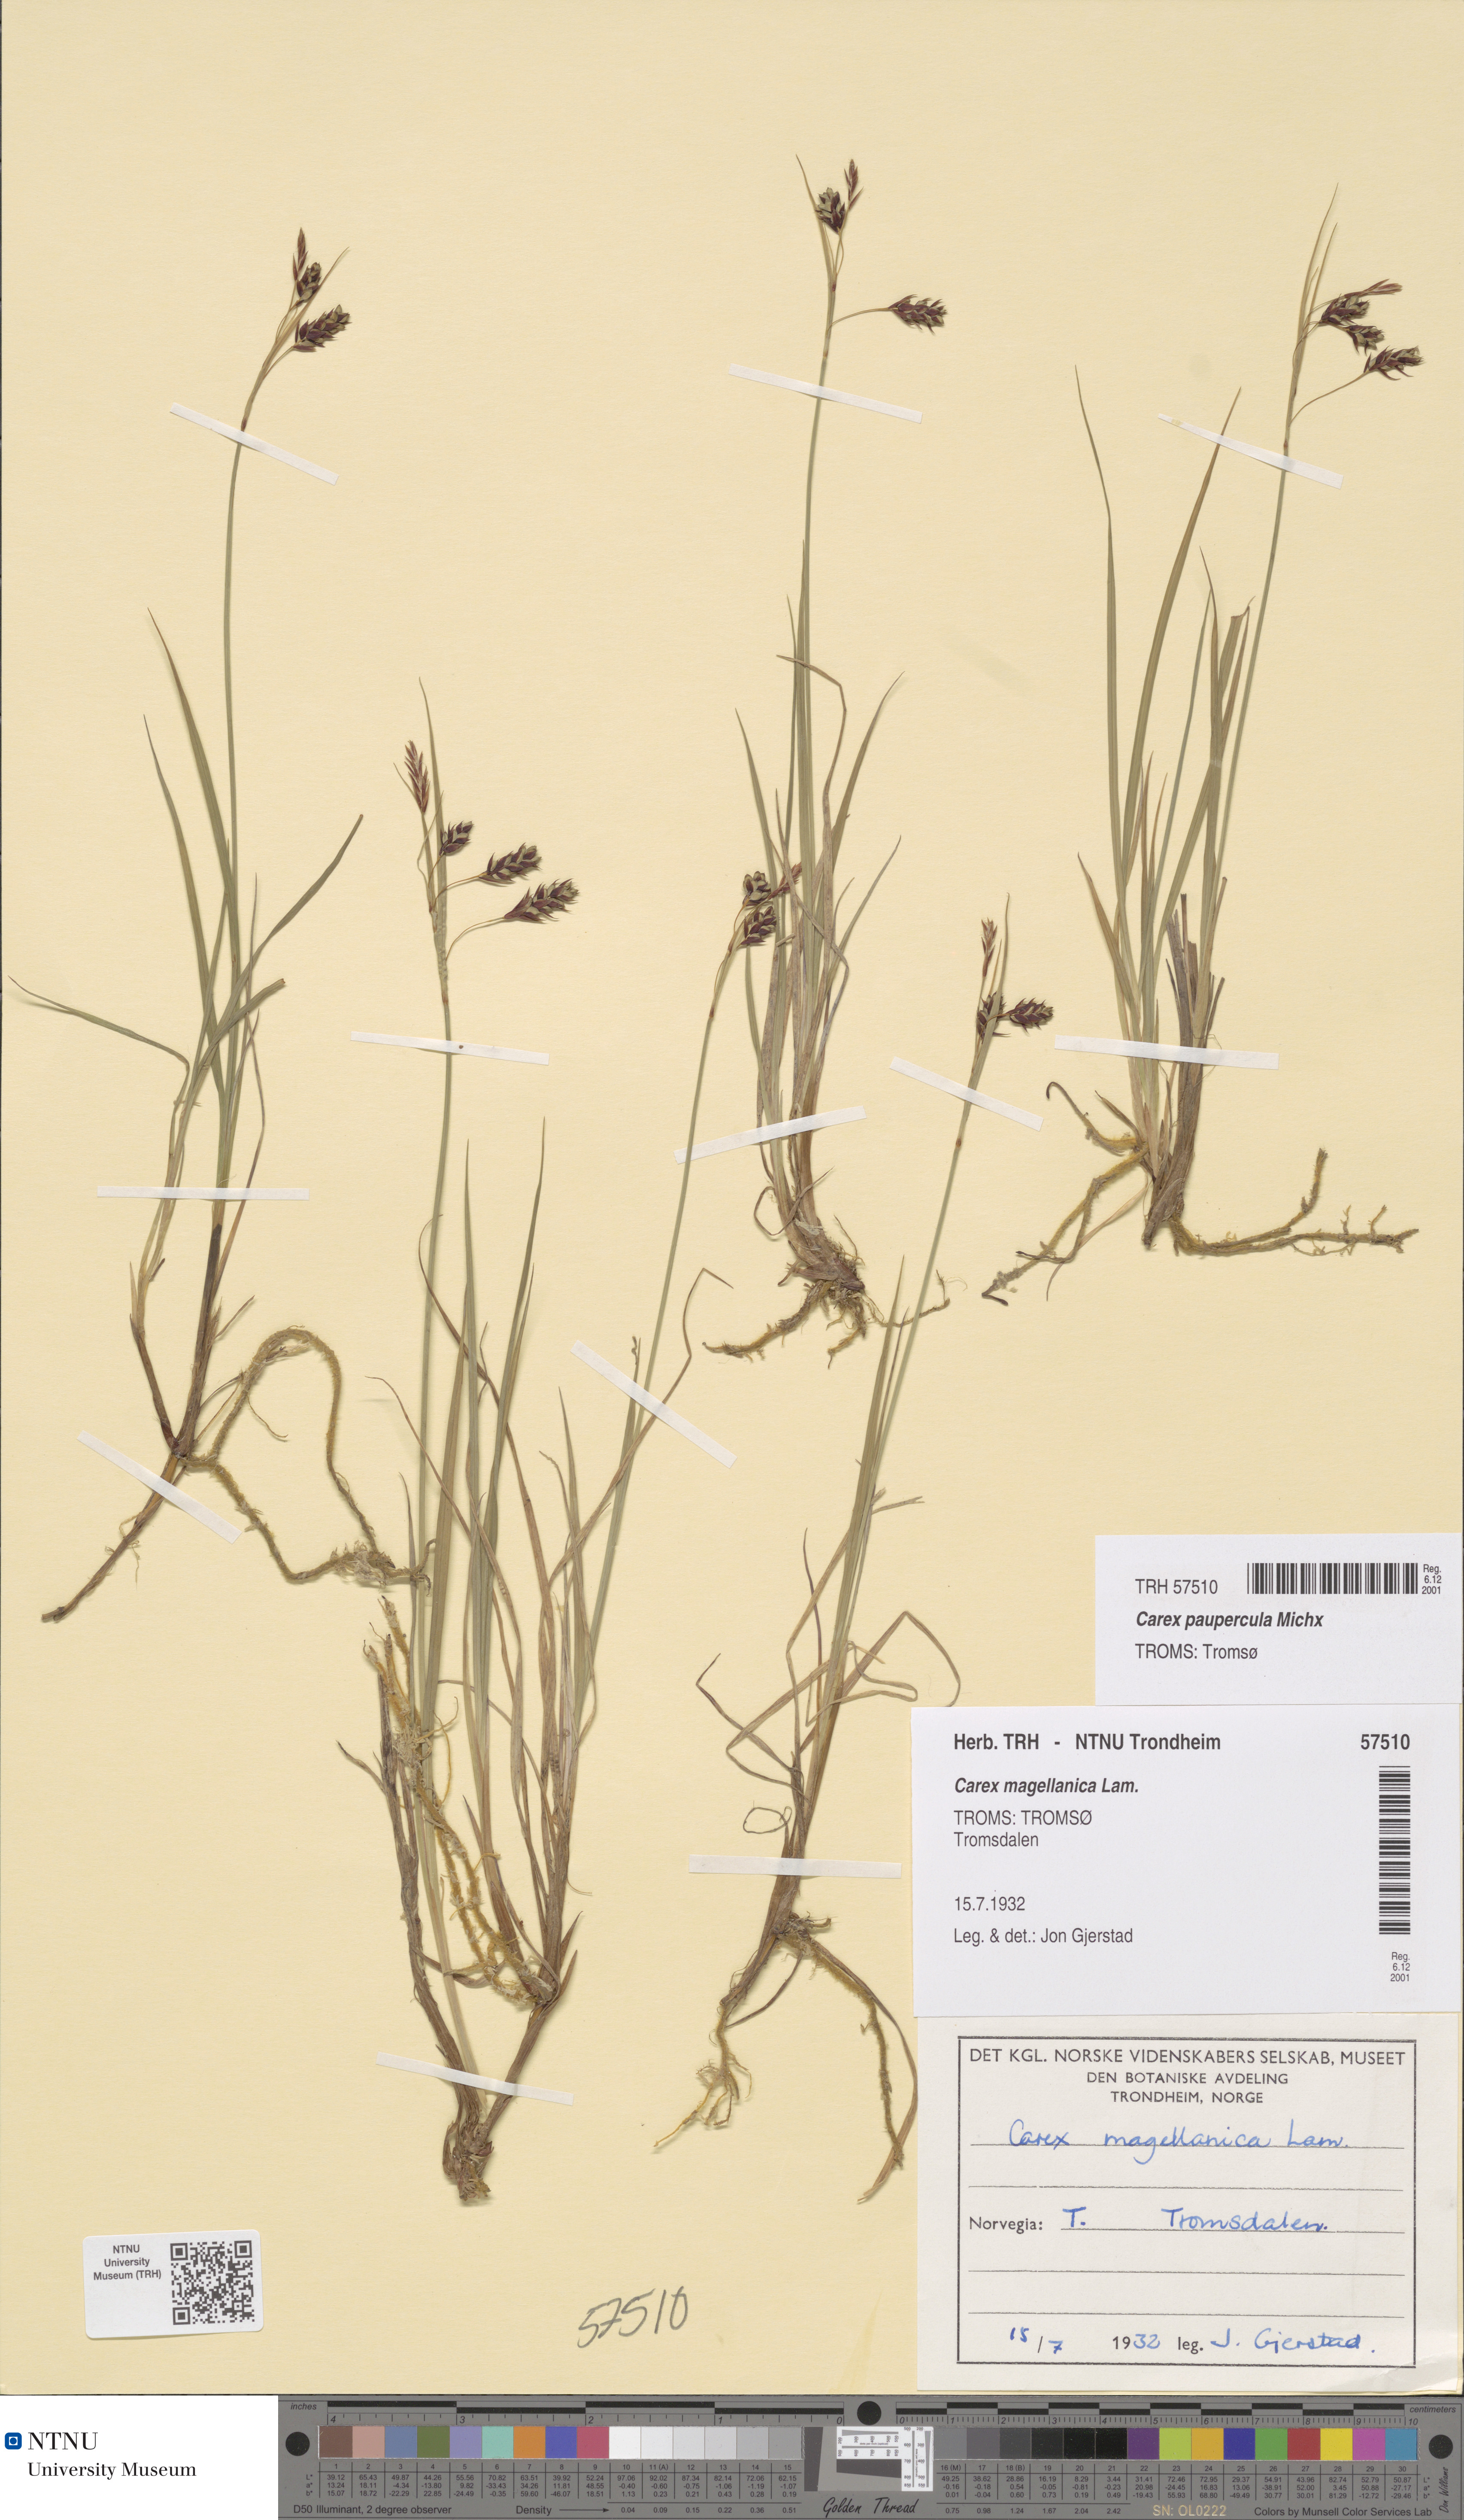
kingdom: Plantae
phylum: Tracheophyta
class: Liliopsida
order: Poales
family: Cyperaceae
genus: Carex
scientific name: Carex magellanica
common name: Bog sedge
